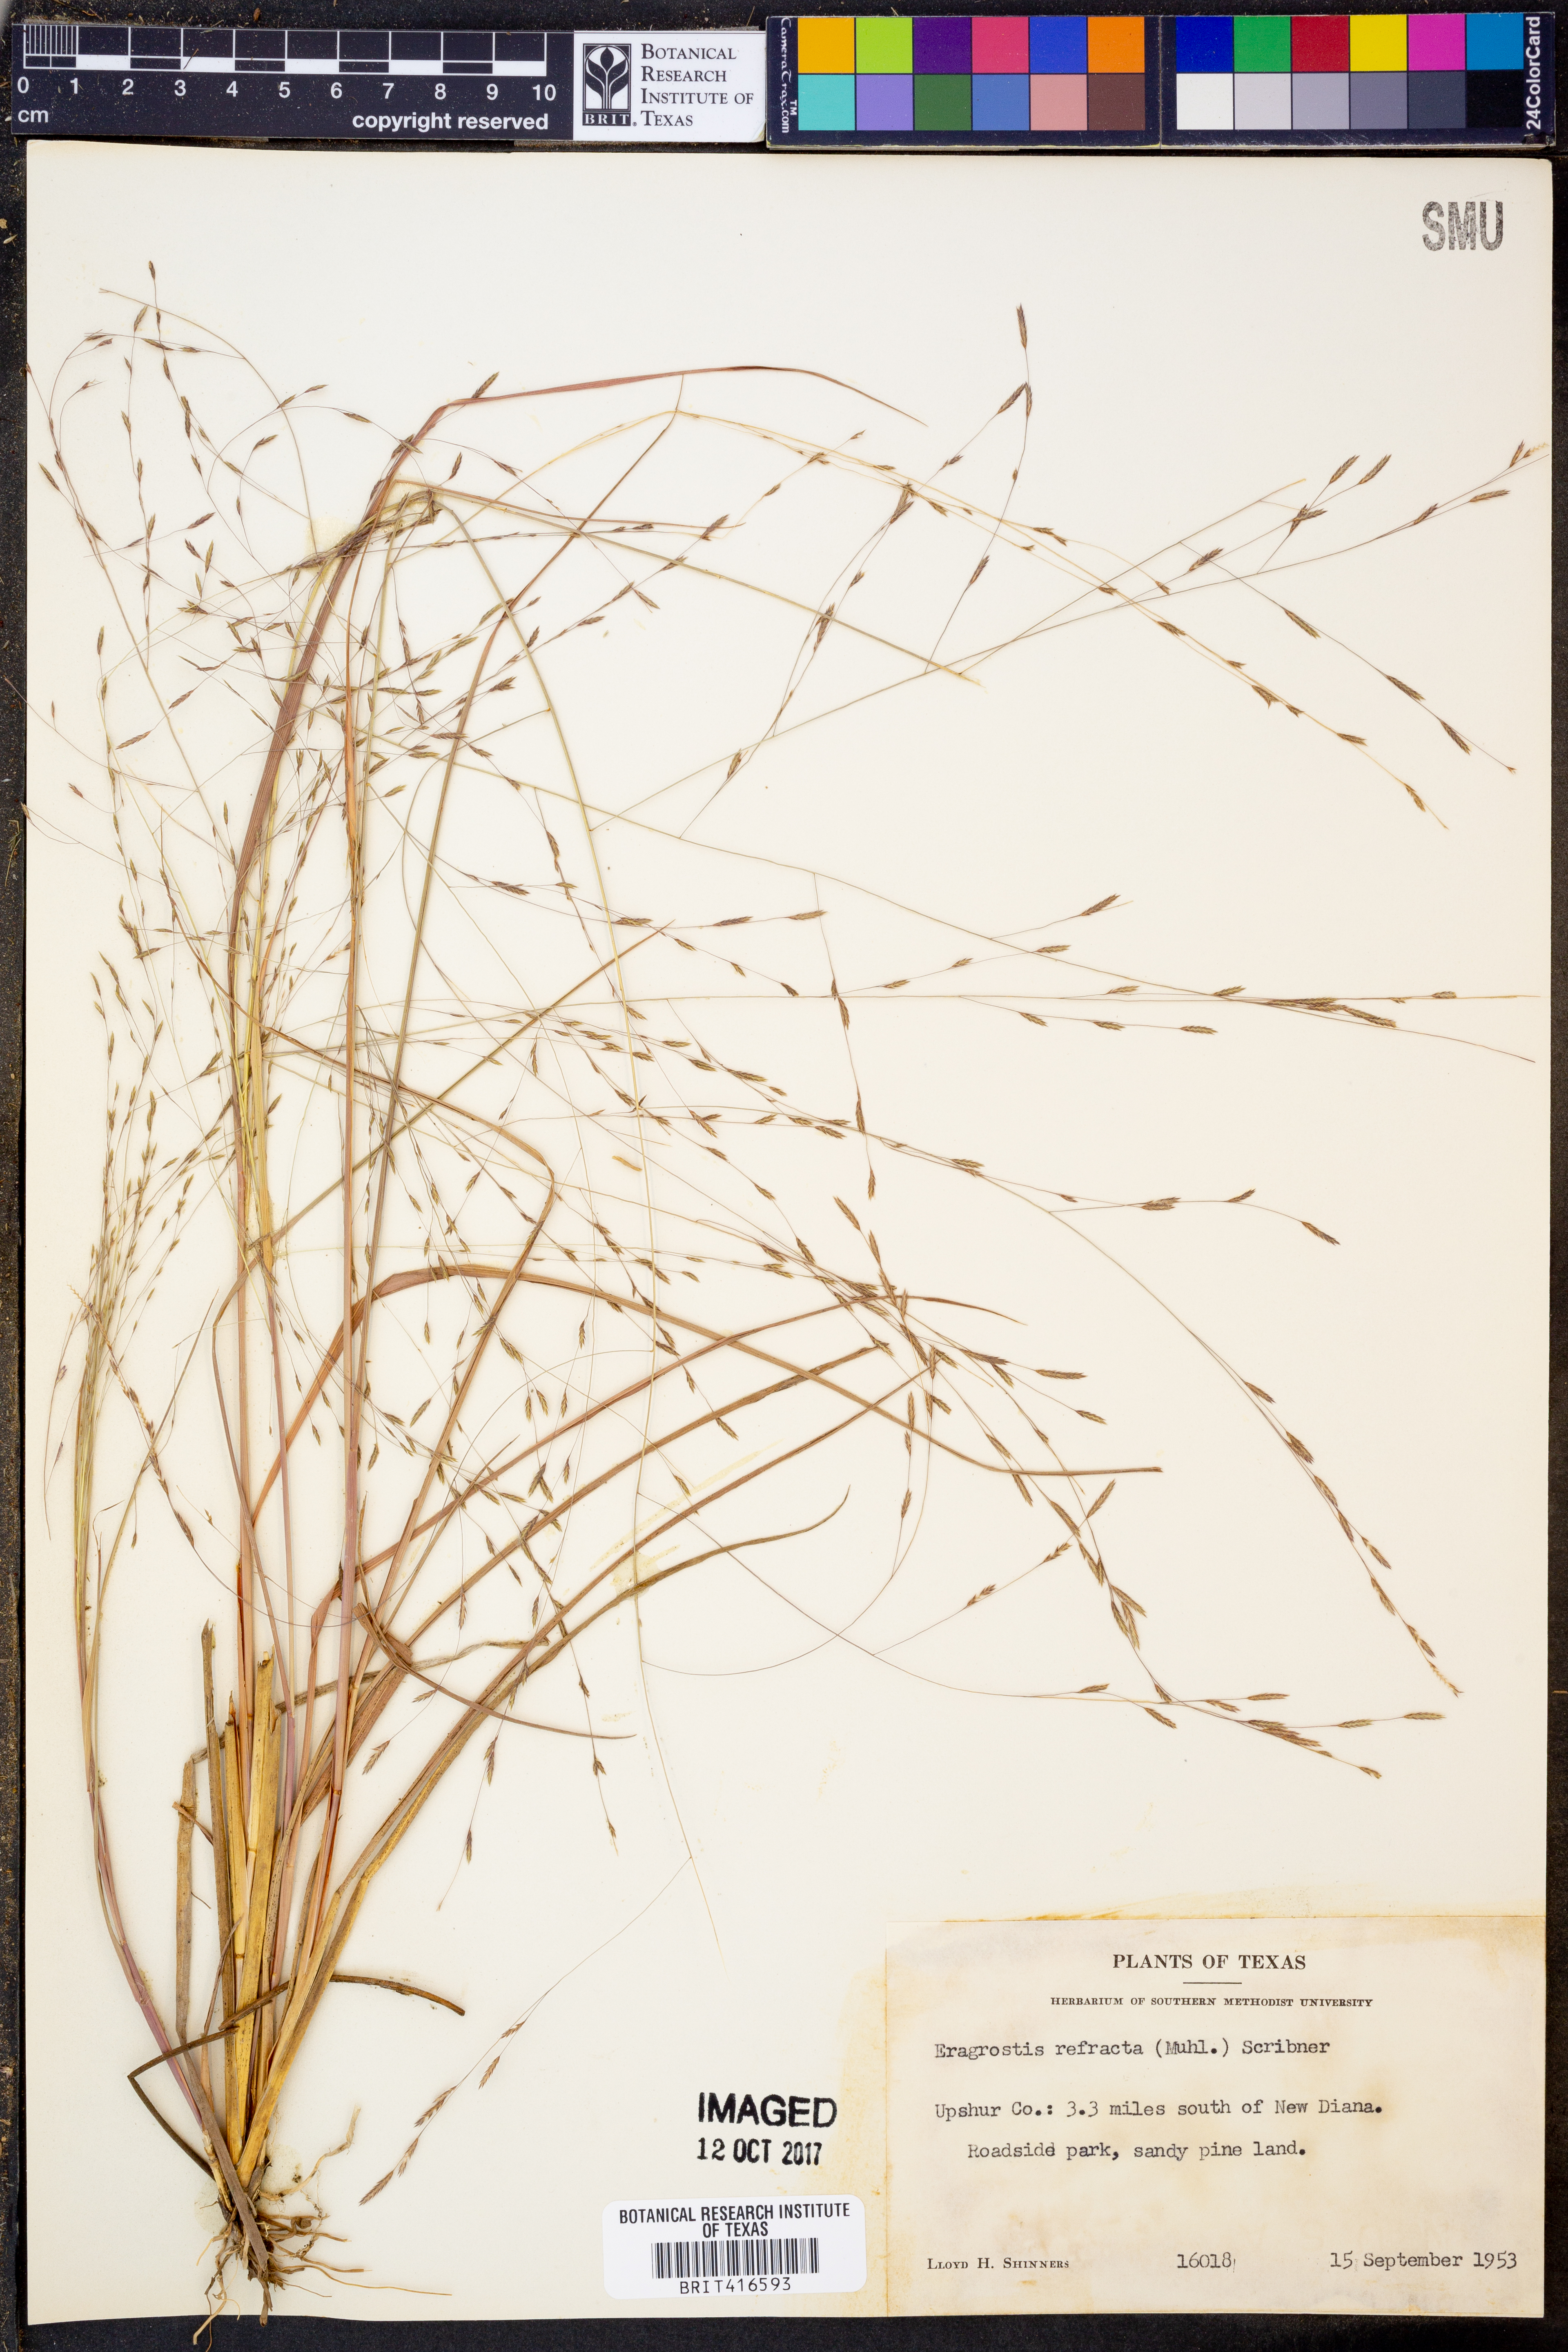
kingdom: Plantae
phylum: Tracheophyta
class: Liliopsida
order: Poales
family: Poaceae
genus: Eragrostis
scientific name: Eragrostis refracta
